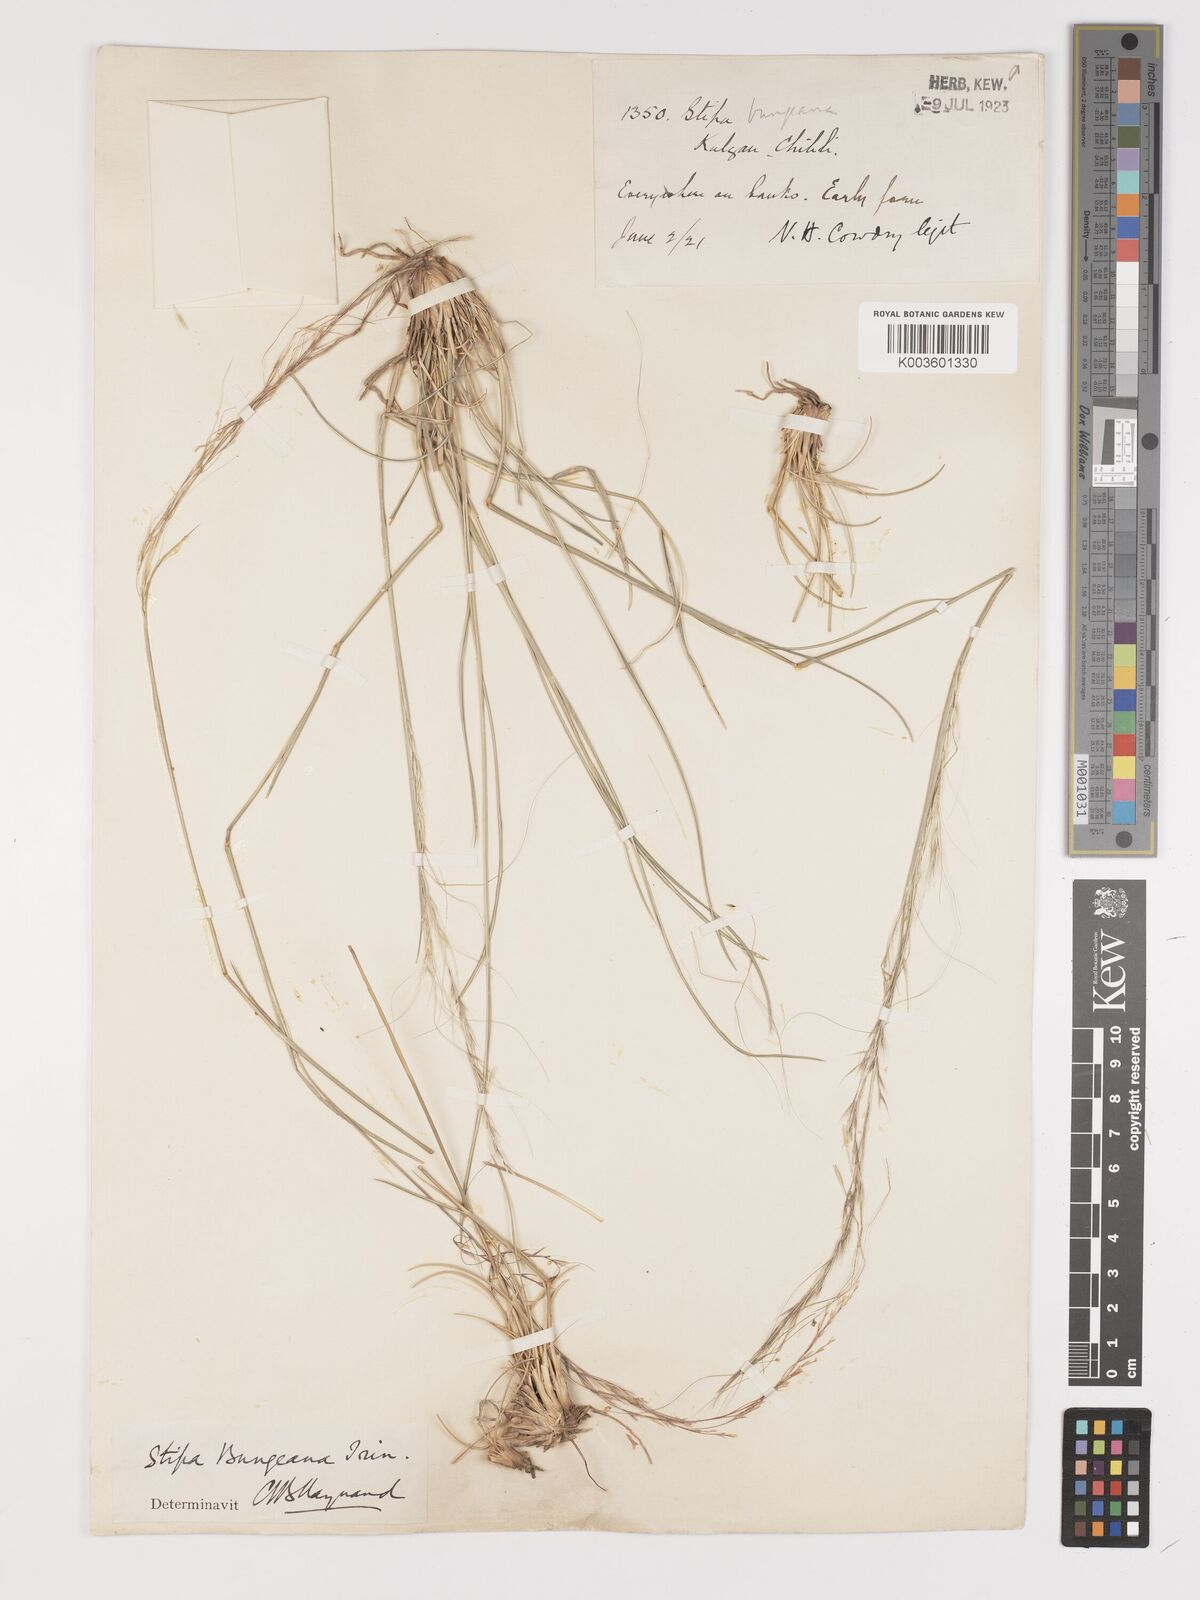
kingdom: Plantae
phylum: Tracheophyta
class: Liliopsida
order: Poales
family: Poaceae
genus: Stipa
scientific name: Stipa bungeana
